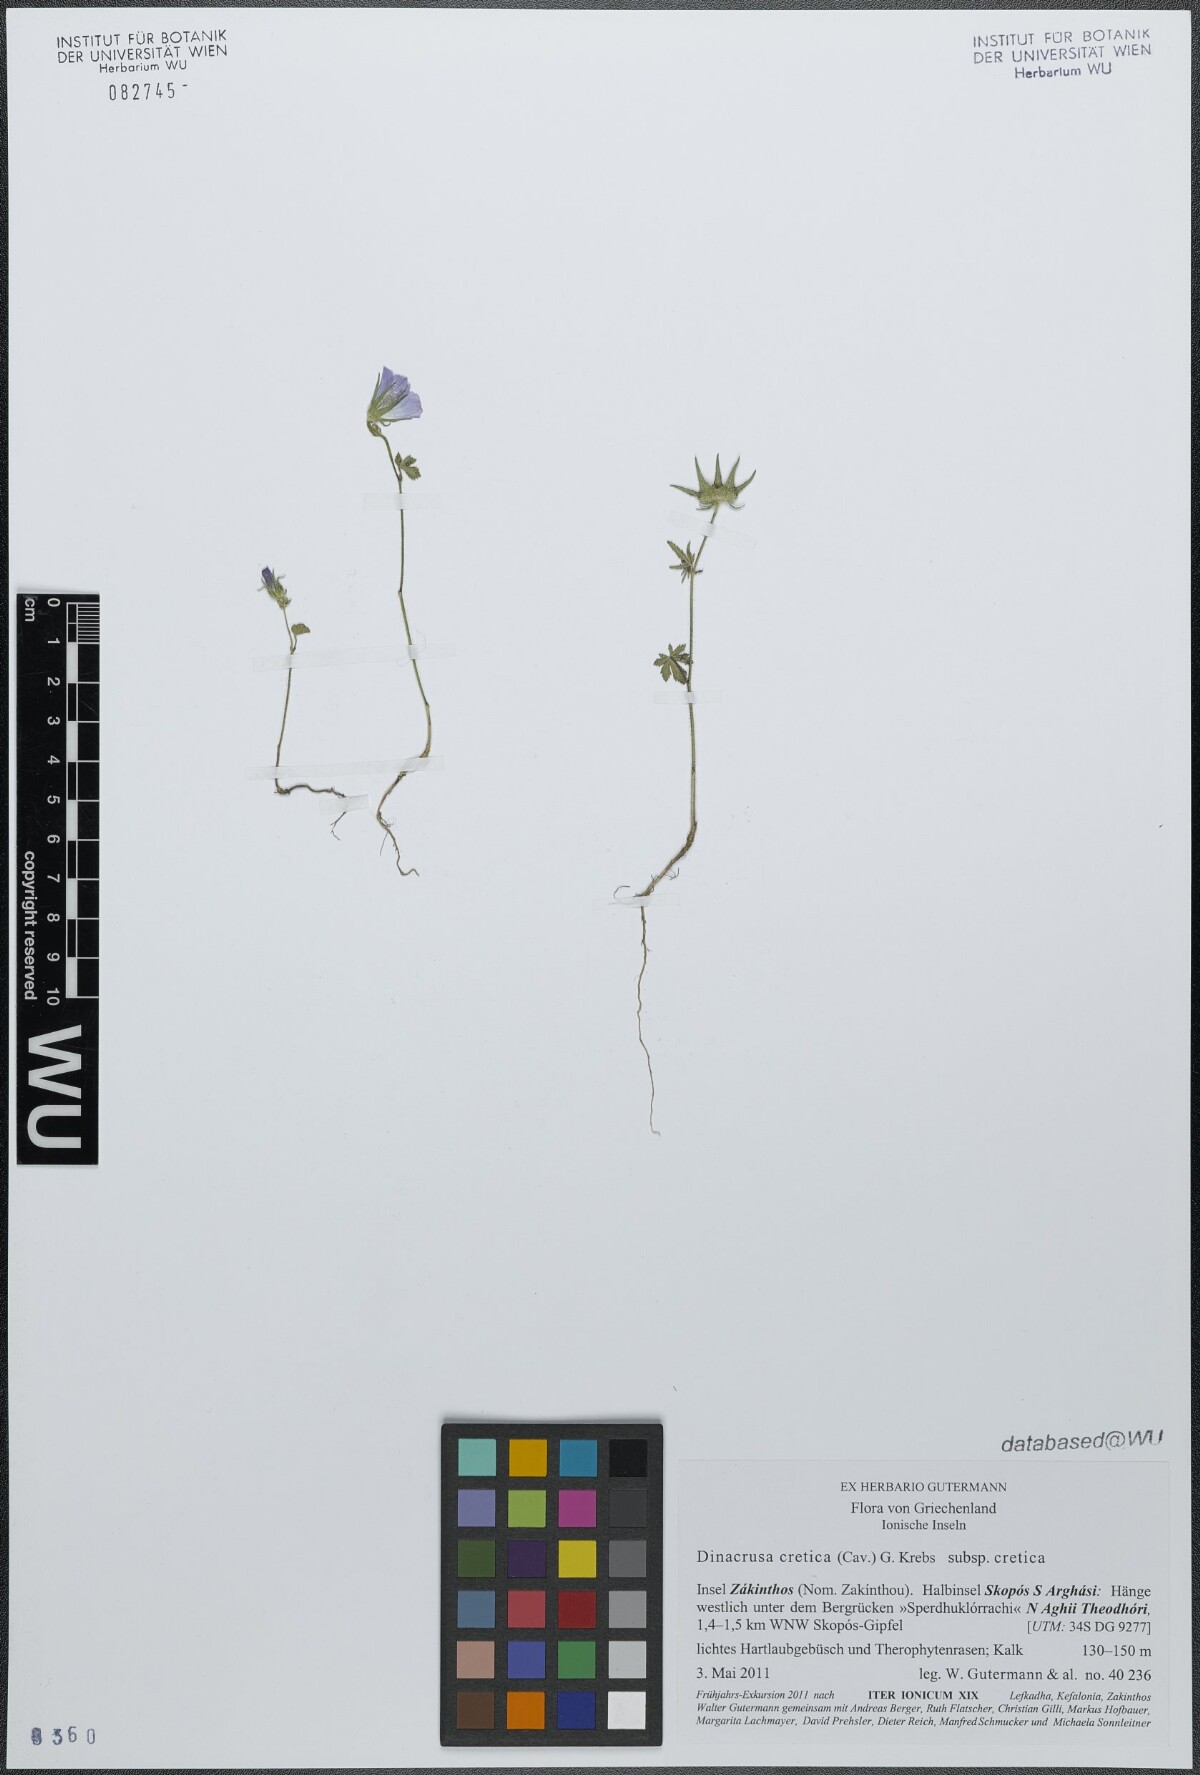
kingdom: Plantae
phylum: Tracheophyta
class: Magnoliopsida
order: Malvales
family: Malvaceae
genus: Malva
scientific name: Malva cretica
